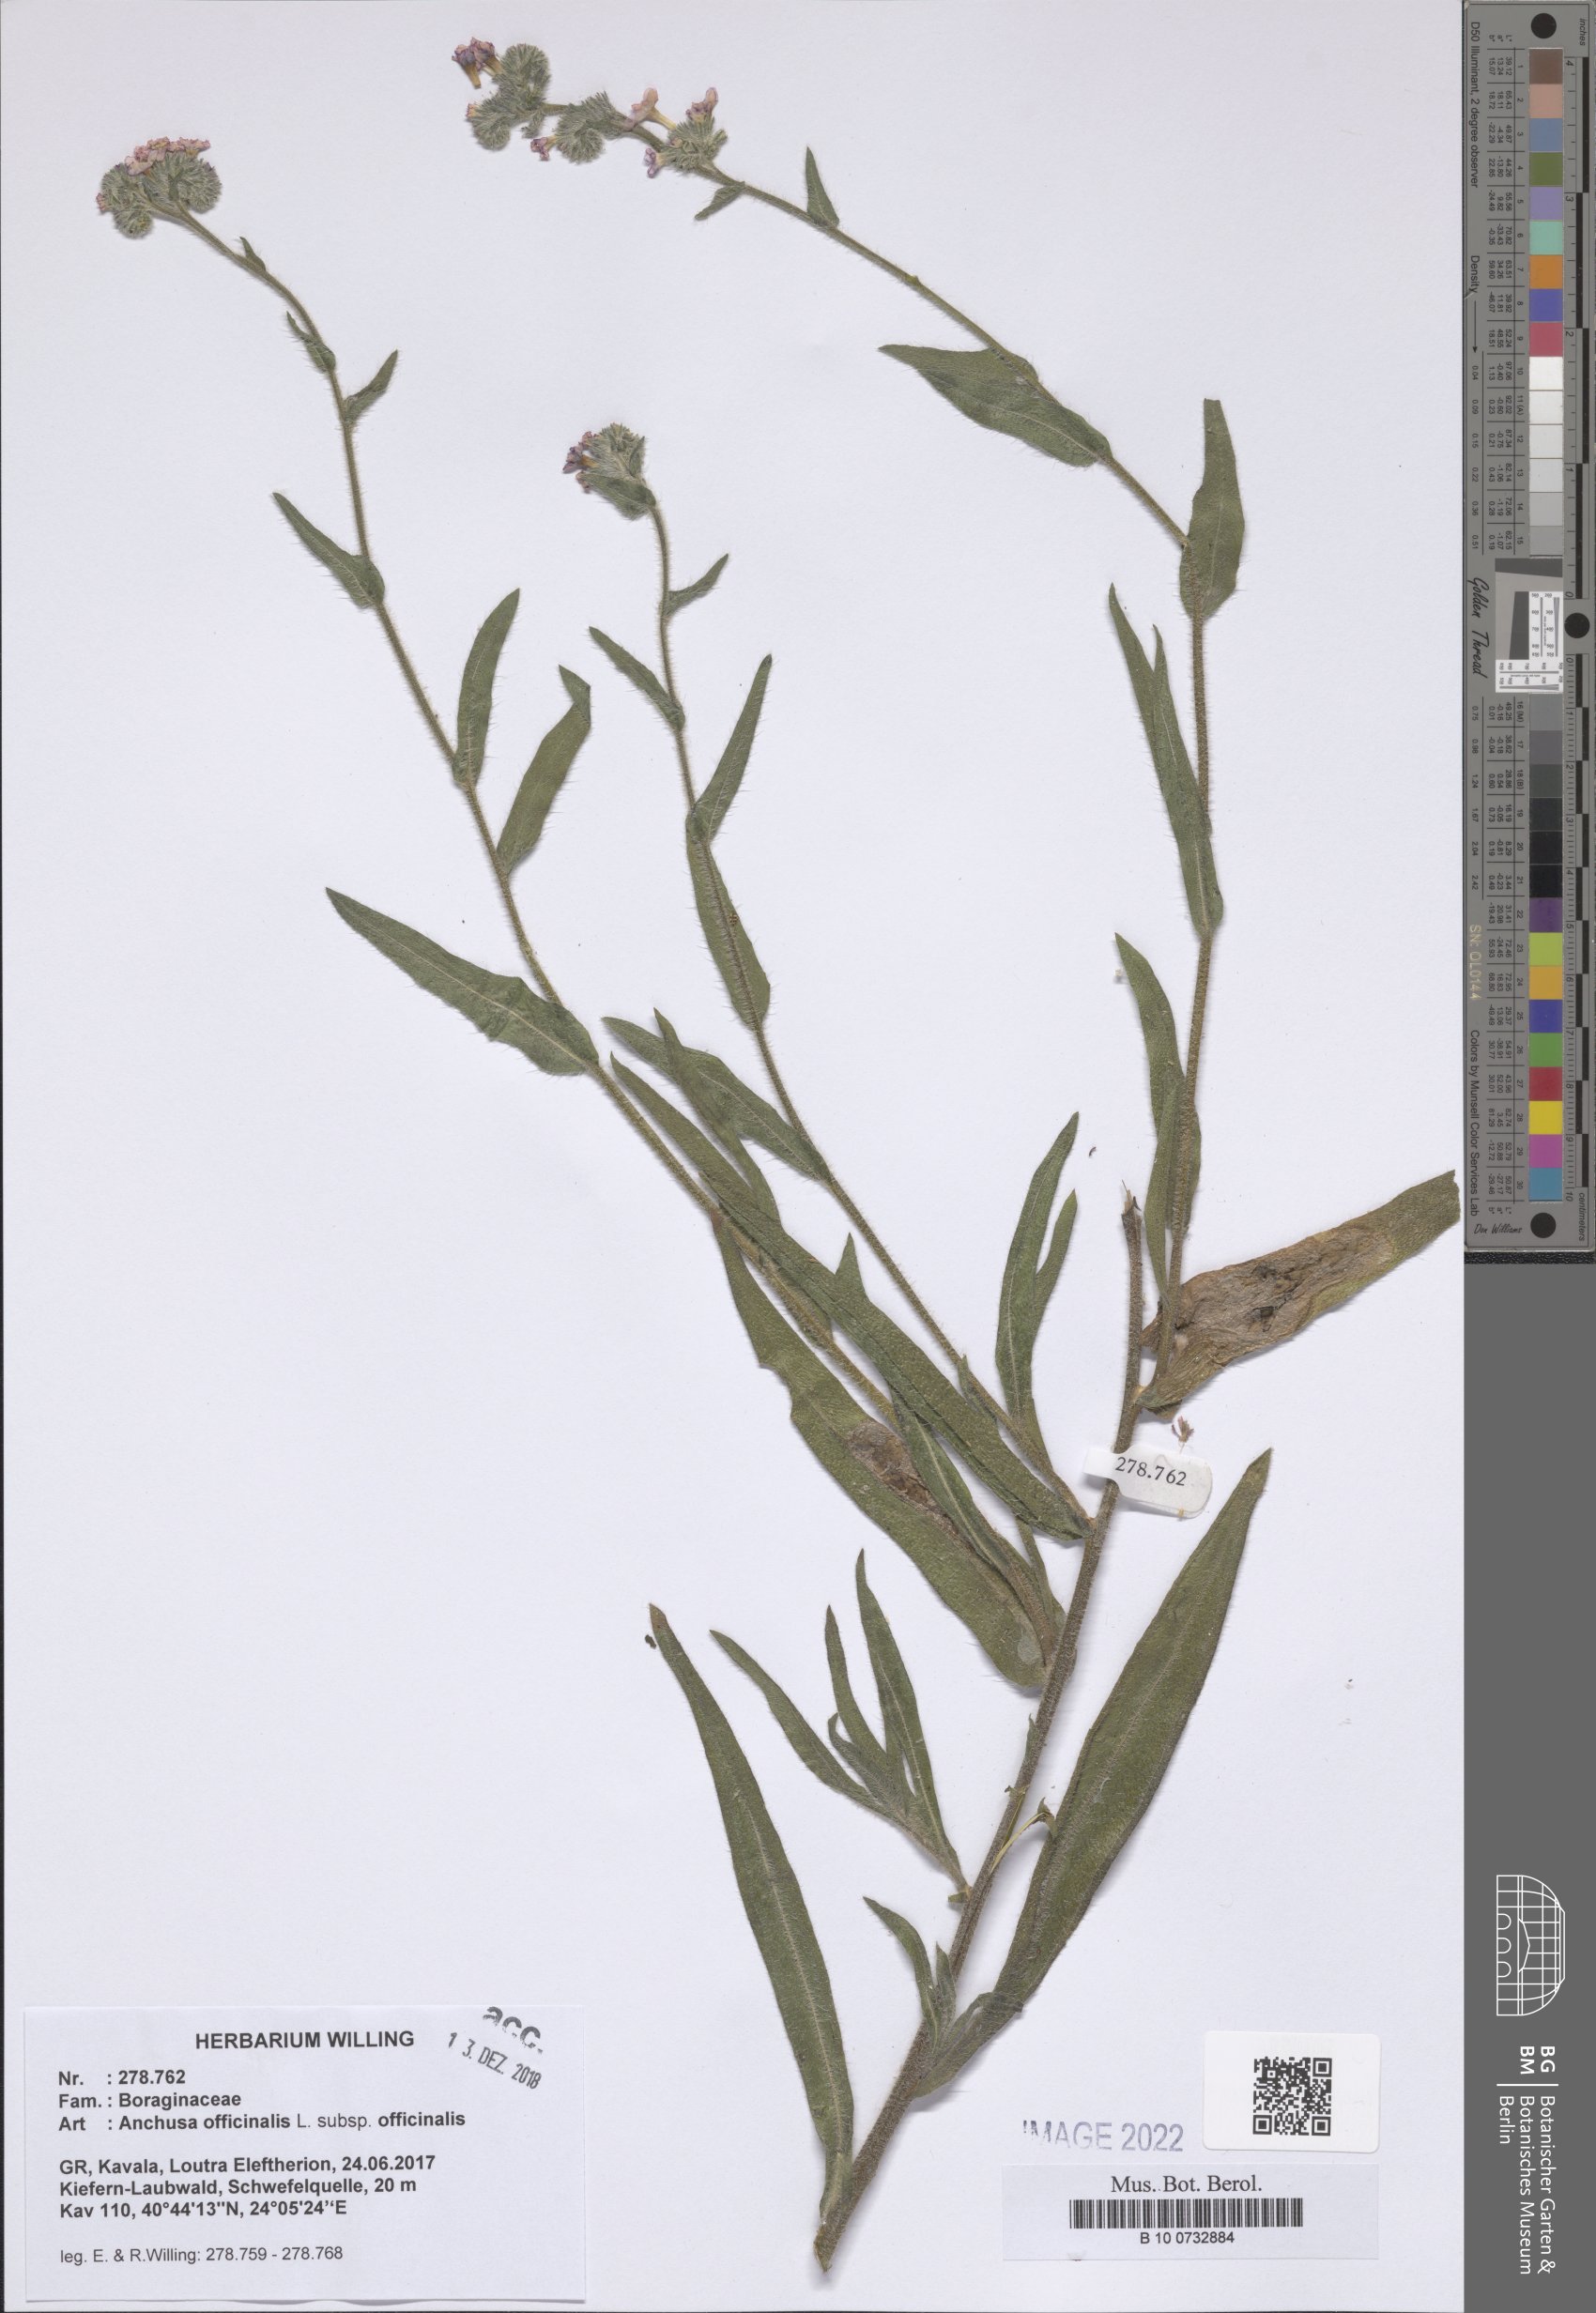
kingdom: Plantae
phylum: Tracheophyta
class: Magnoliopsida
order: Boraginales
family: Boraginaceae
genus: Anchusa
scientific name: Anchusa officinalis
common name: Alkanet
